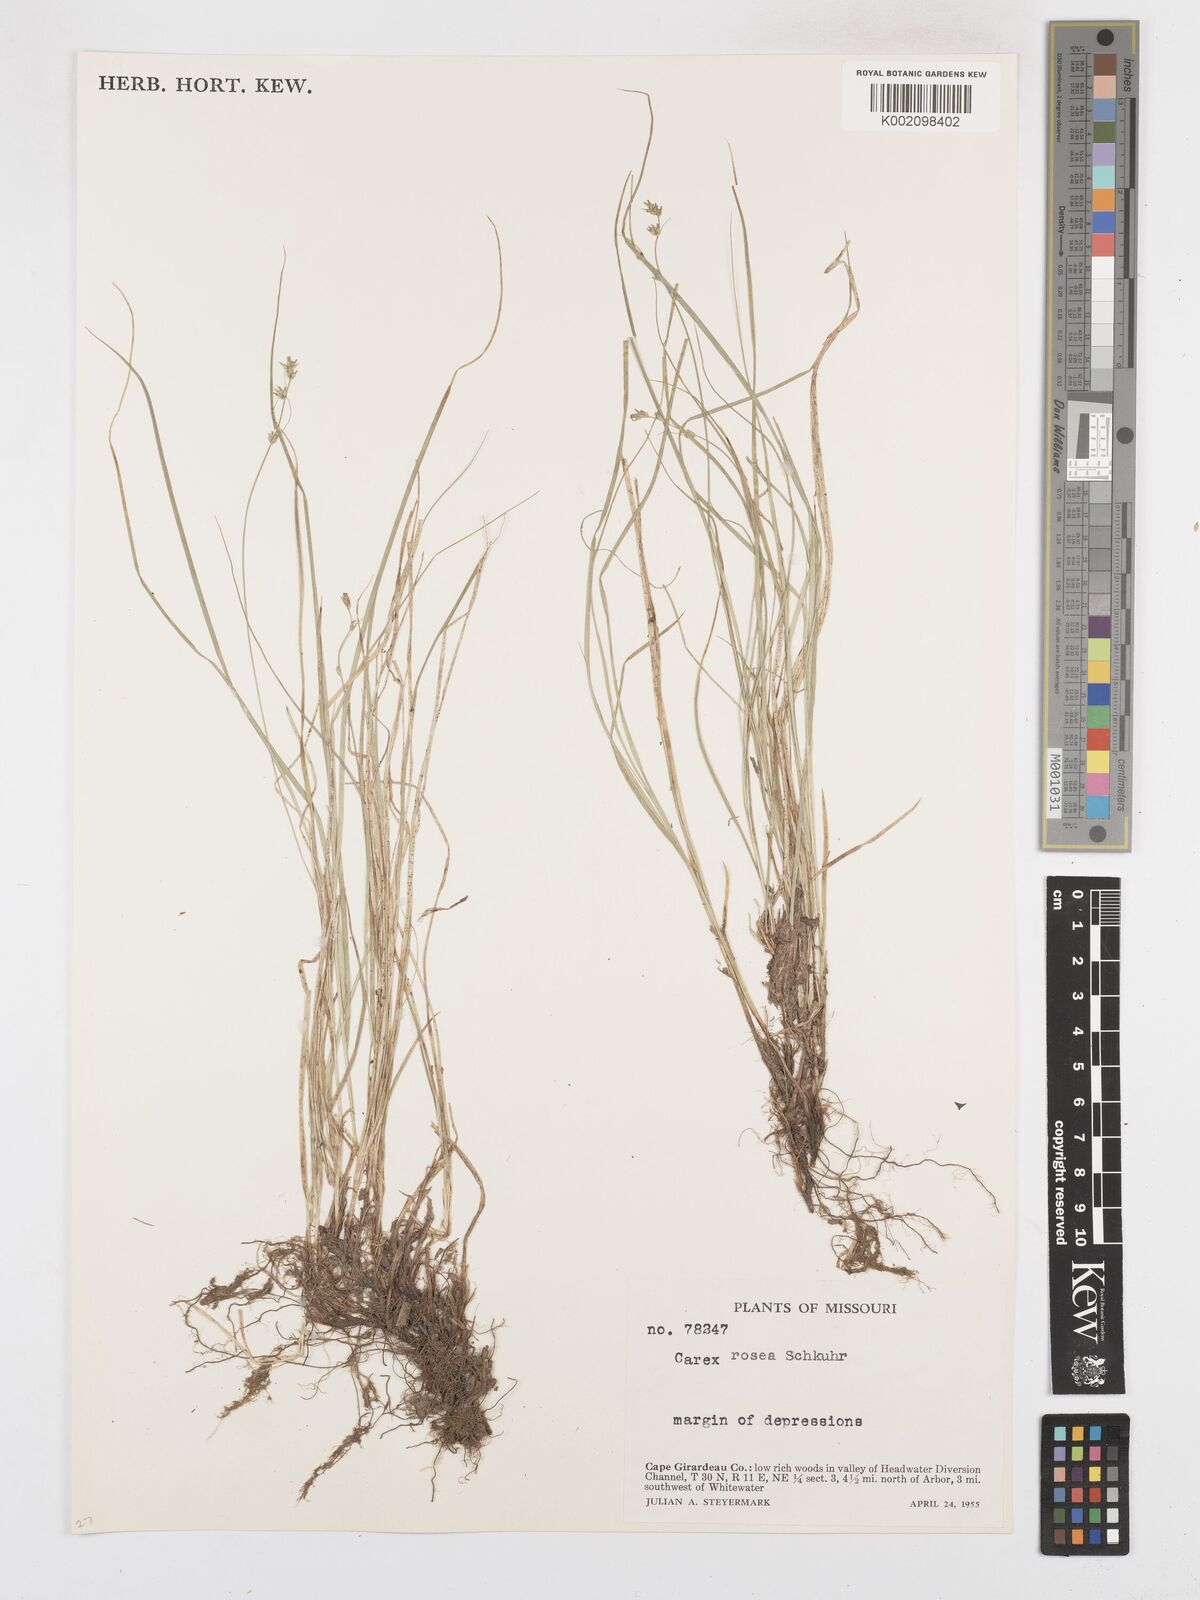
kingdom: Plantae
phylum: Tracheophyta
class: Liliopsida
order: Poales
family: Cyperaceae
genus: Carex
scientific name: Carex rosea
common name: Curly-styled wood sedge
